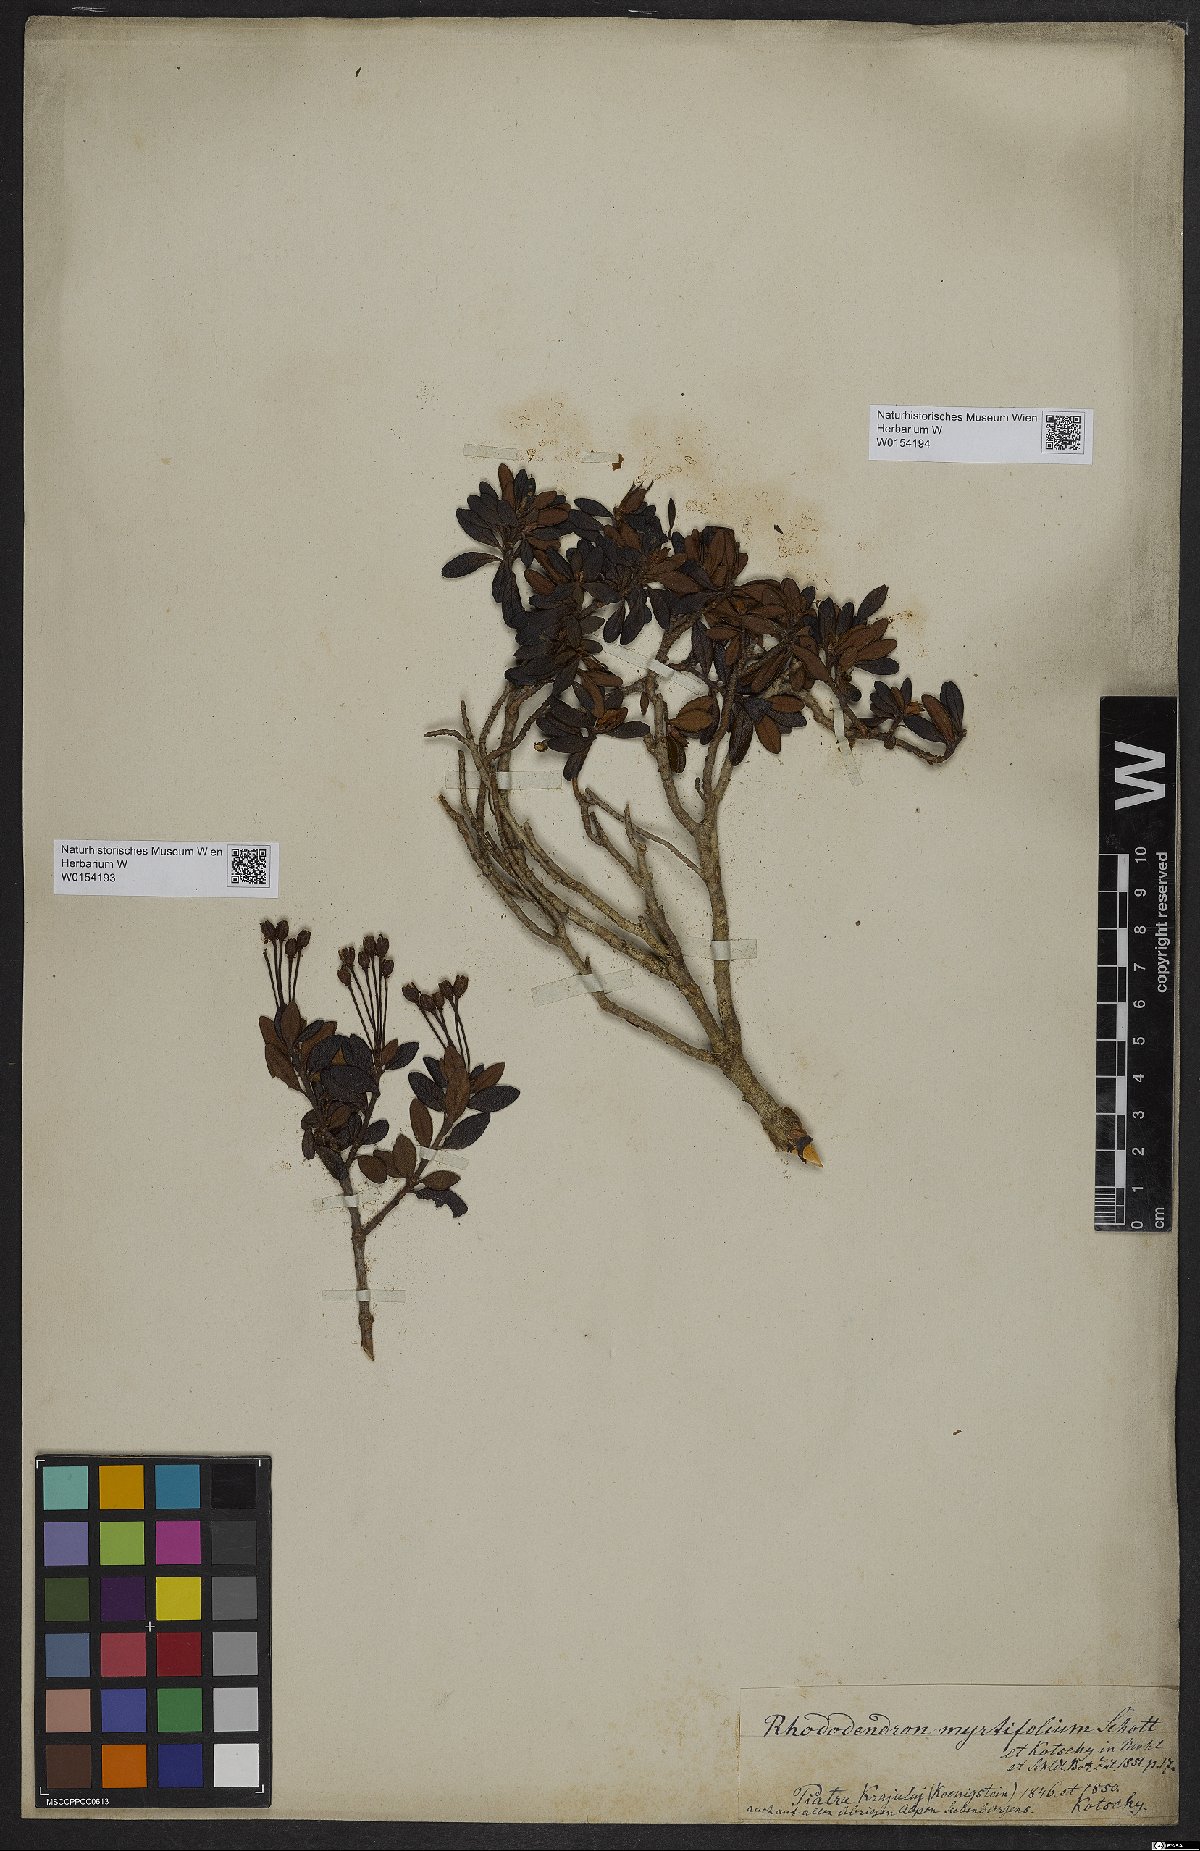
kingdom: Plantae
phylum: Tracheophyta
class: Magnoliopsida
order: Ericales
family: Ericaceae
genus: Rhododendron
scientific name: Rhododendron kotschyi
